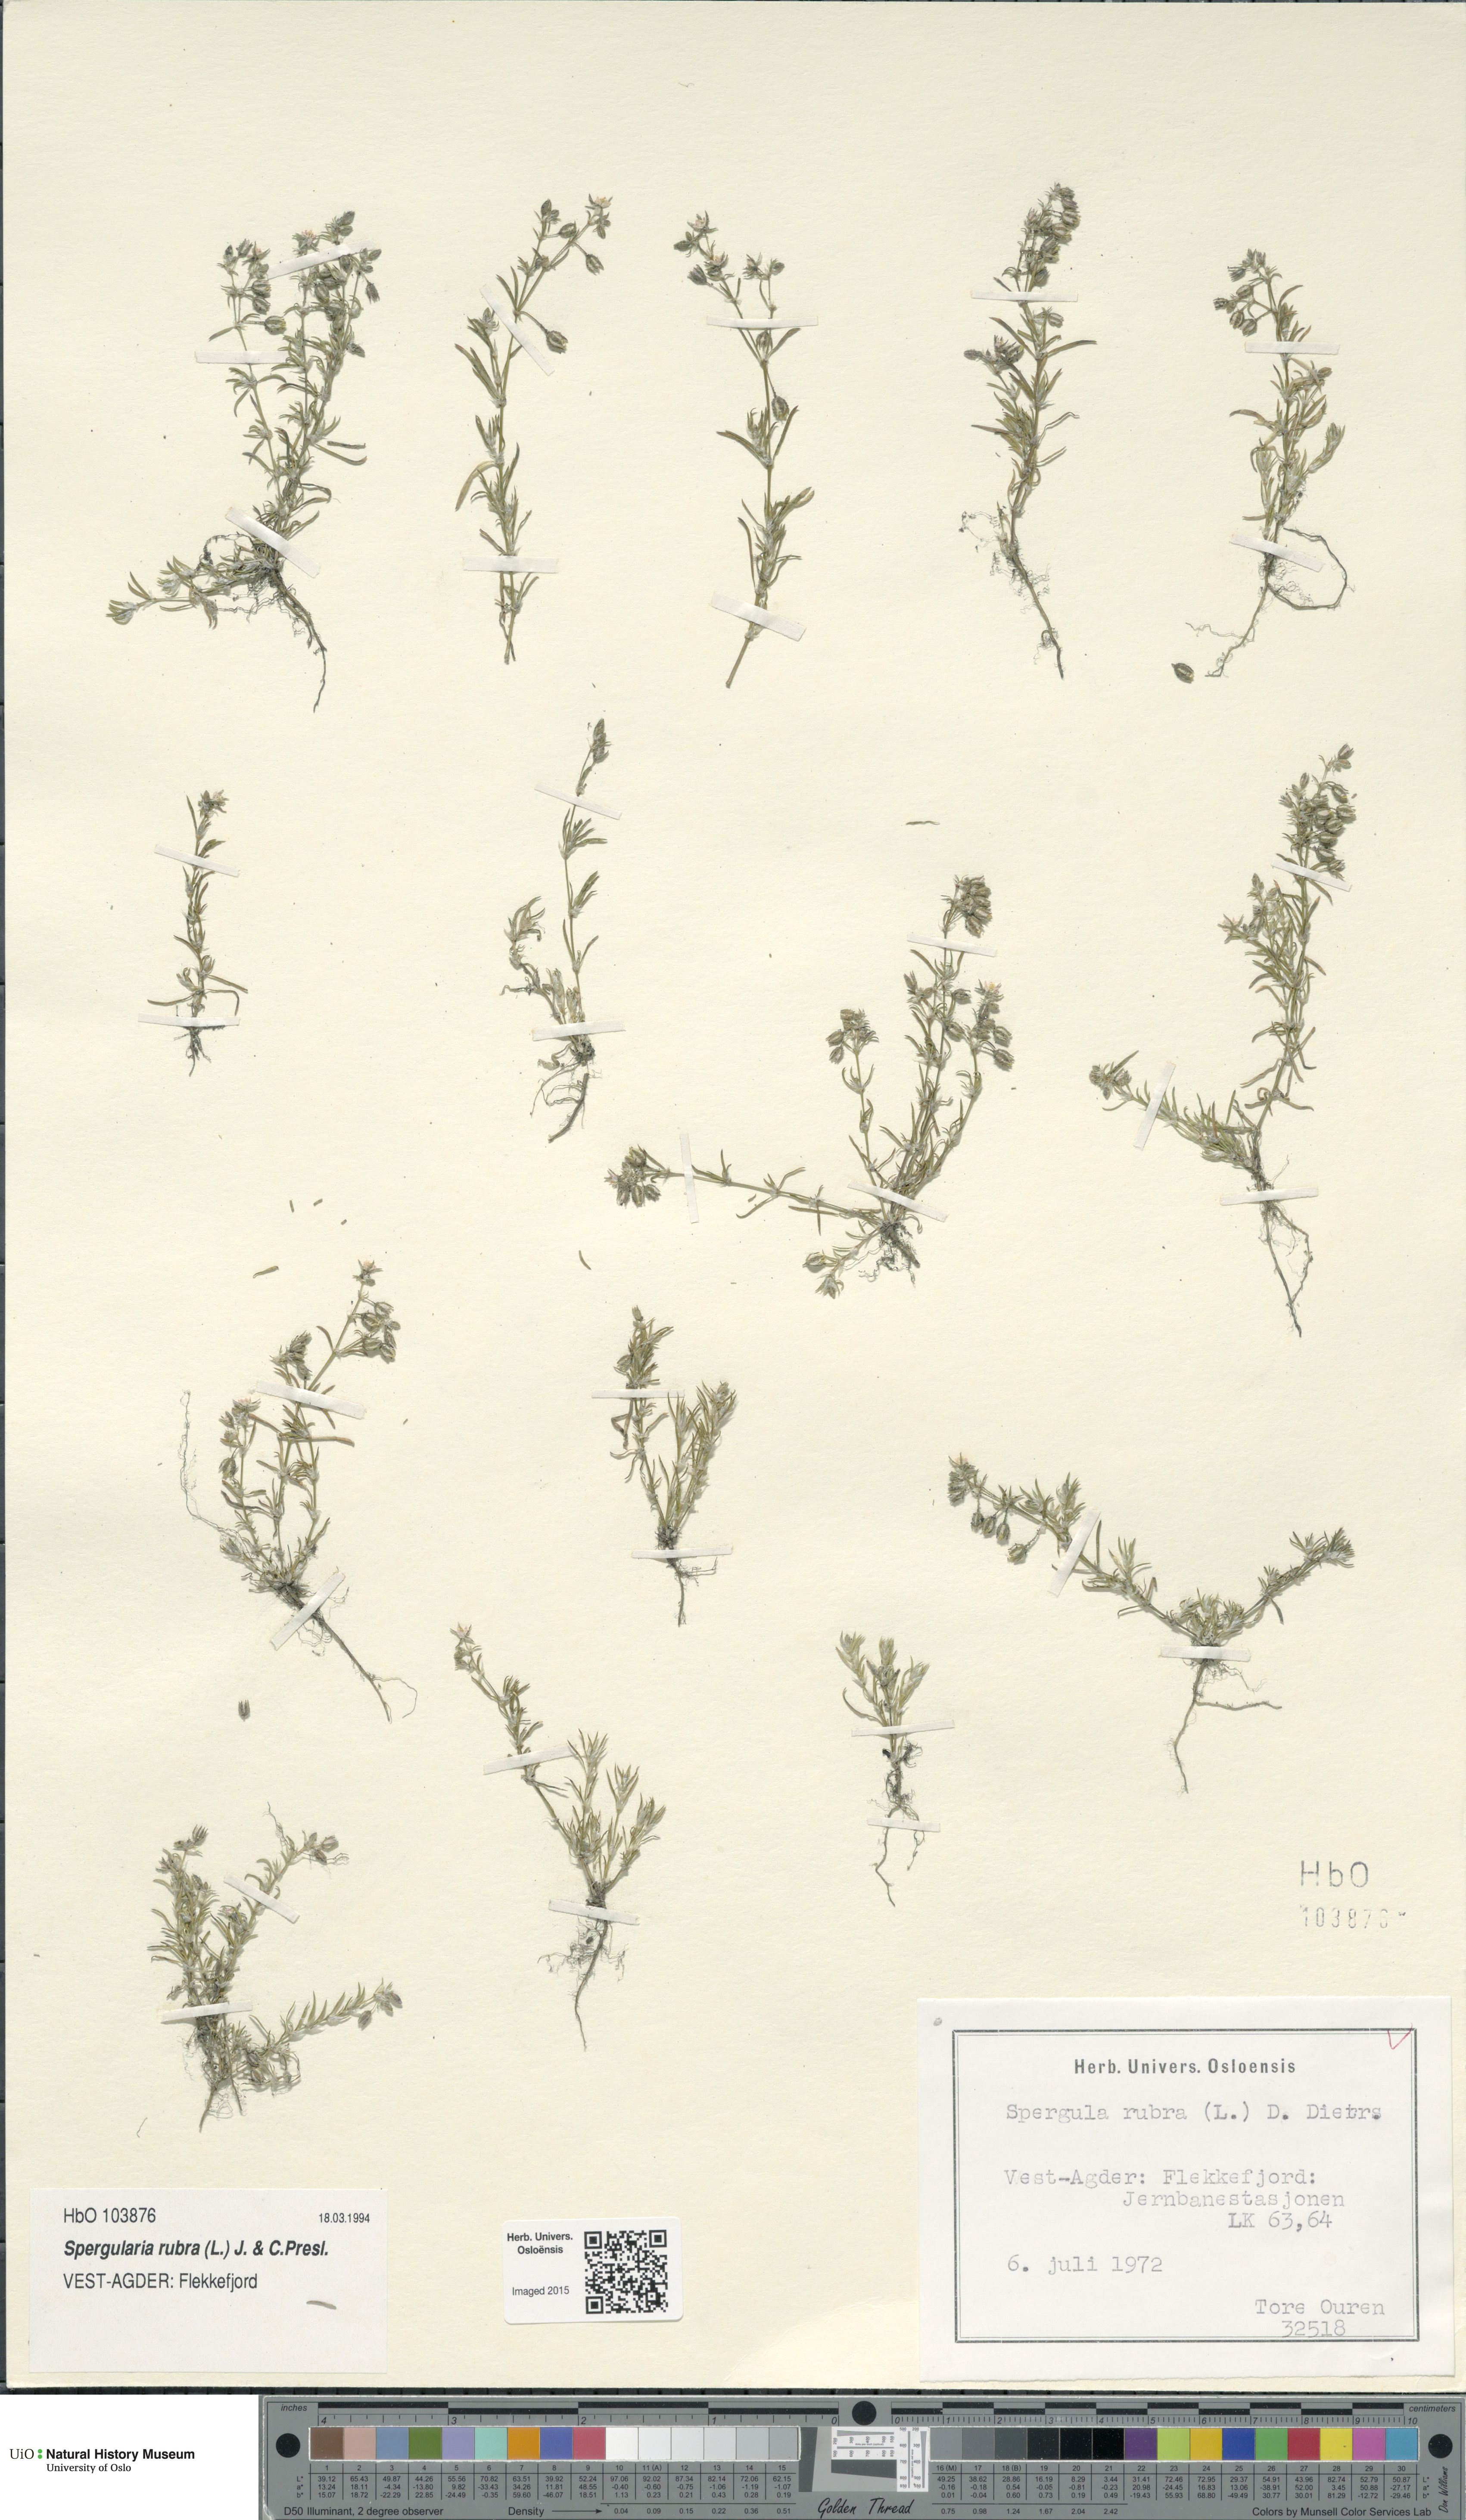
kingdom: Plantae
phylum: Tracheophyta
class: Magnoliopsida
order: Caryophyllales
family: Caryophyllaceae
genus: Spergularia
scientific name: Spergularia rubra
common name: Red sand-spurrey
